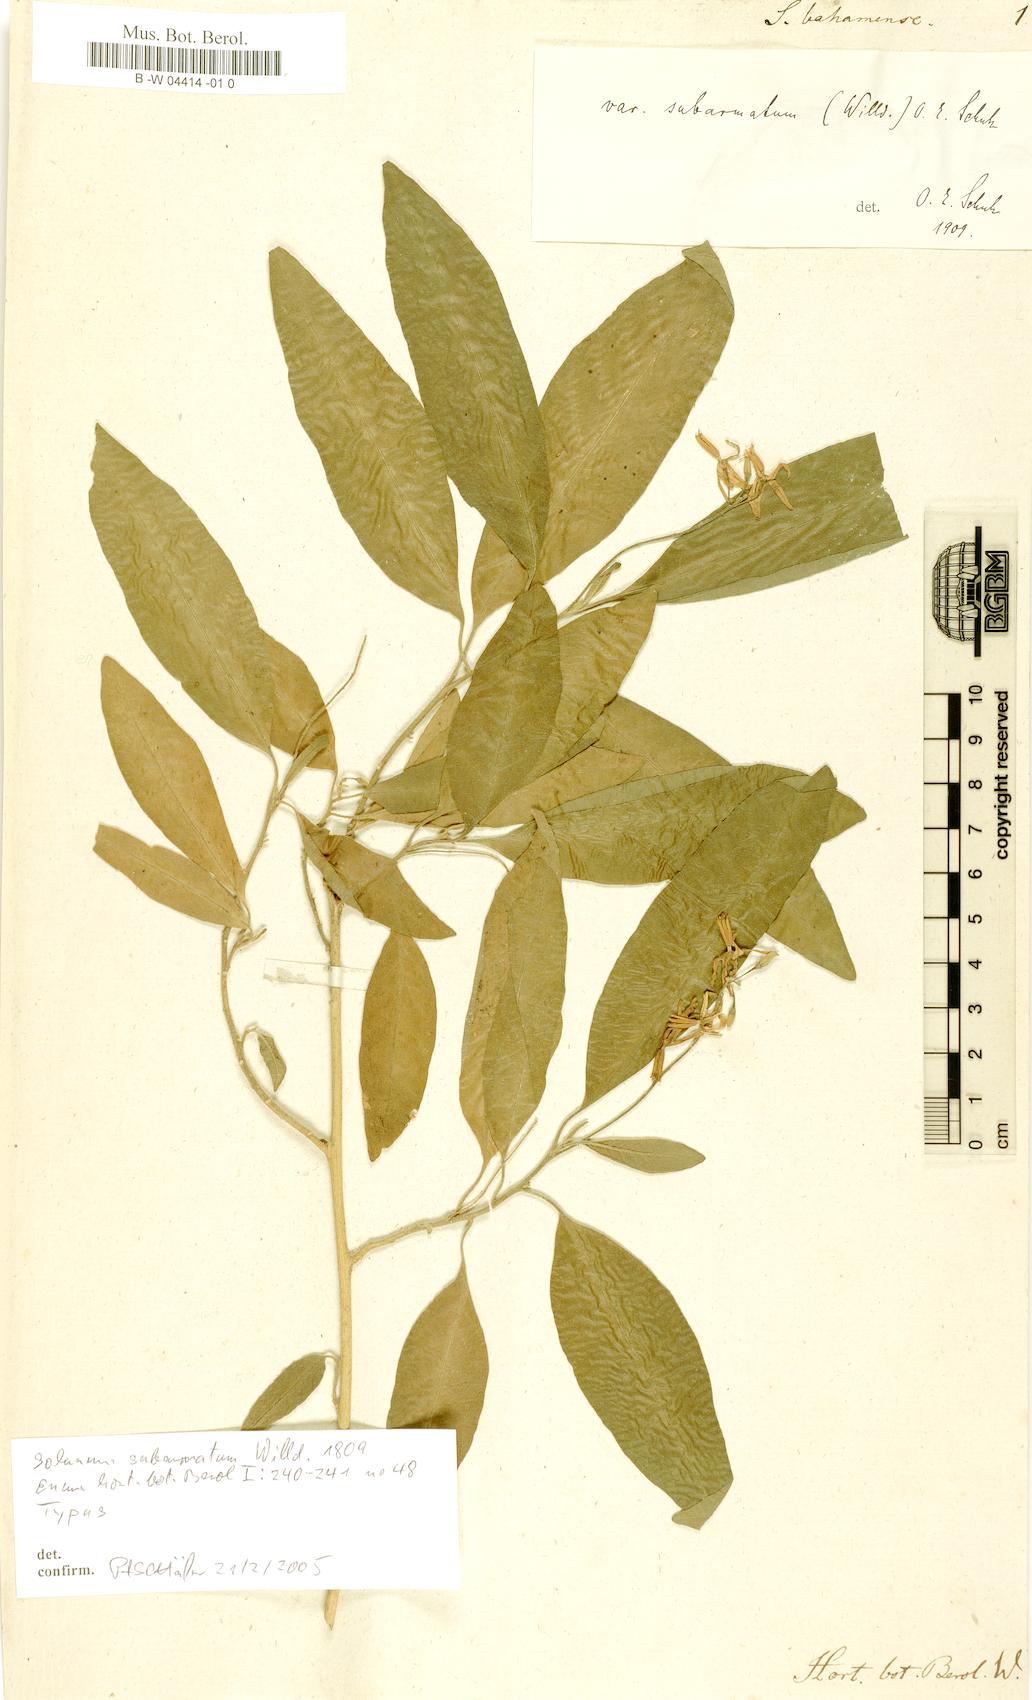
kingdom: Plantae
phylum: Tracheophyta
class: Magnoliopsida
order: Solanales
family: Solanaceae
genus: Solanum
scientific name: Solanum bahamense
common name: Canker-berry
